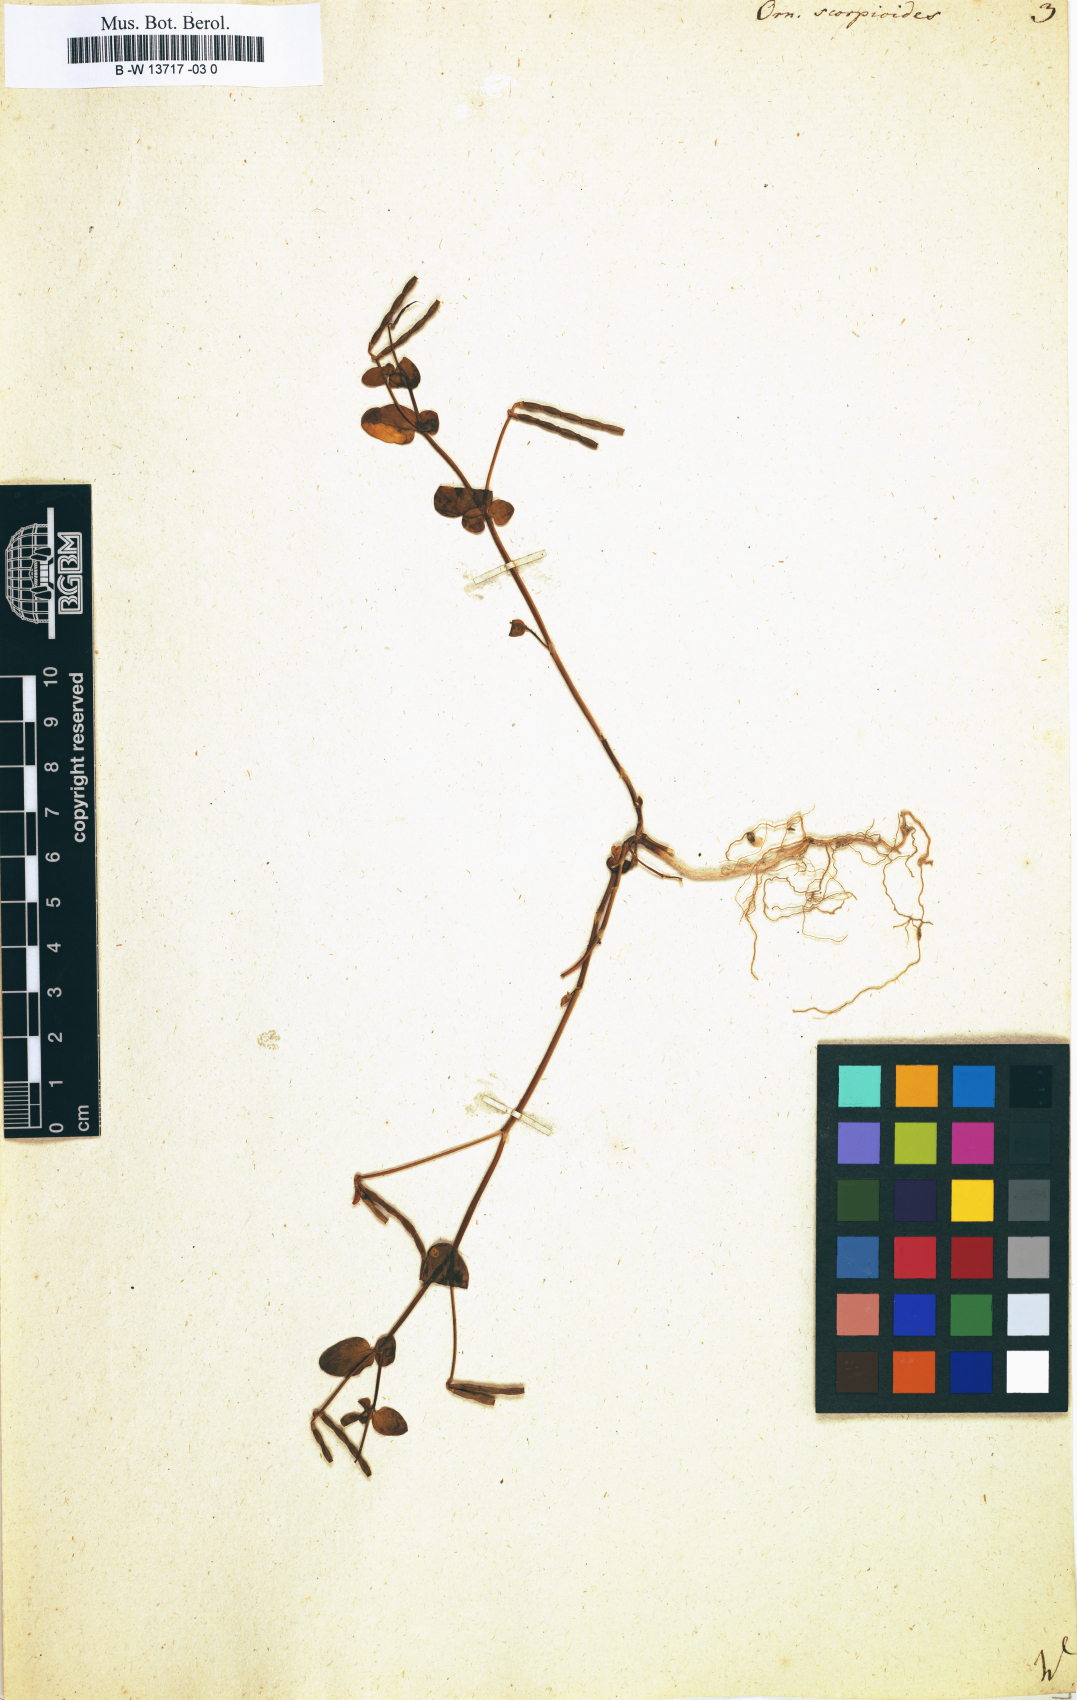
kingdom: Plantae
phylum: Tracheophyta
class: Magnoliopsida
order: Fabales
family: Fabaceae
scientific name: Fabaceae
